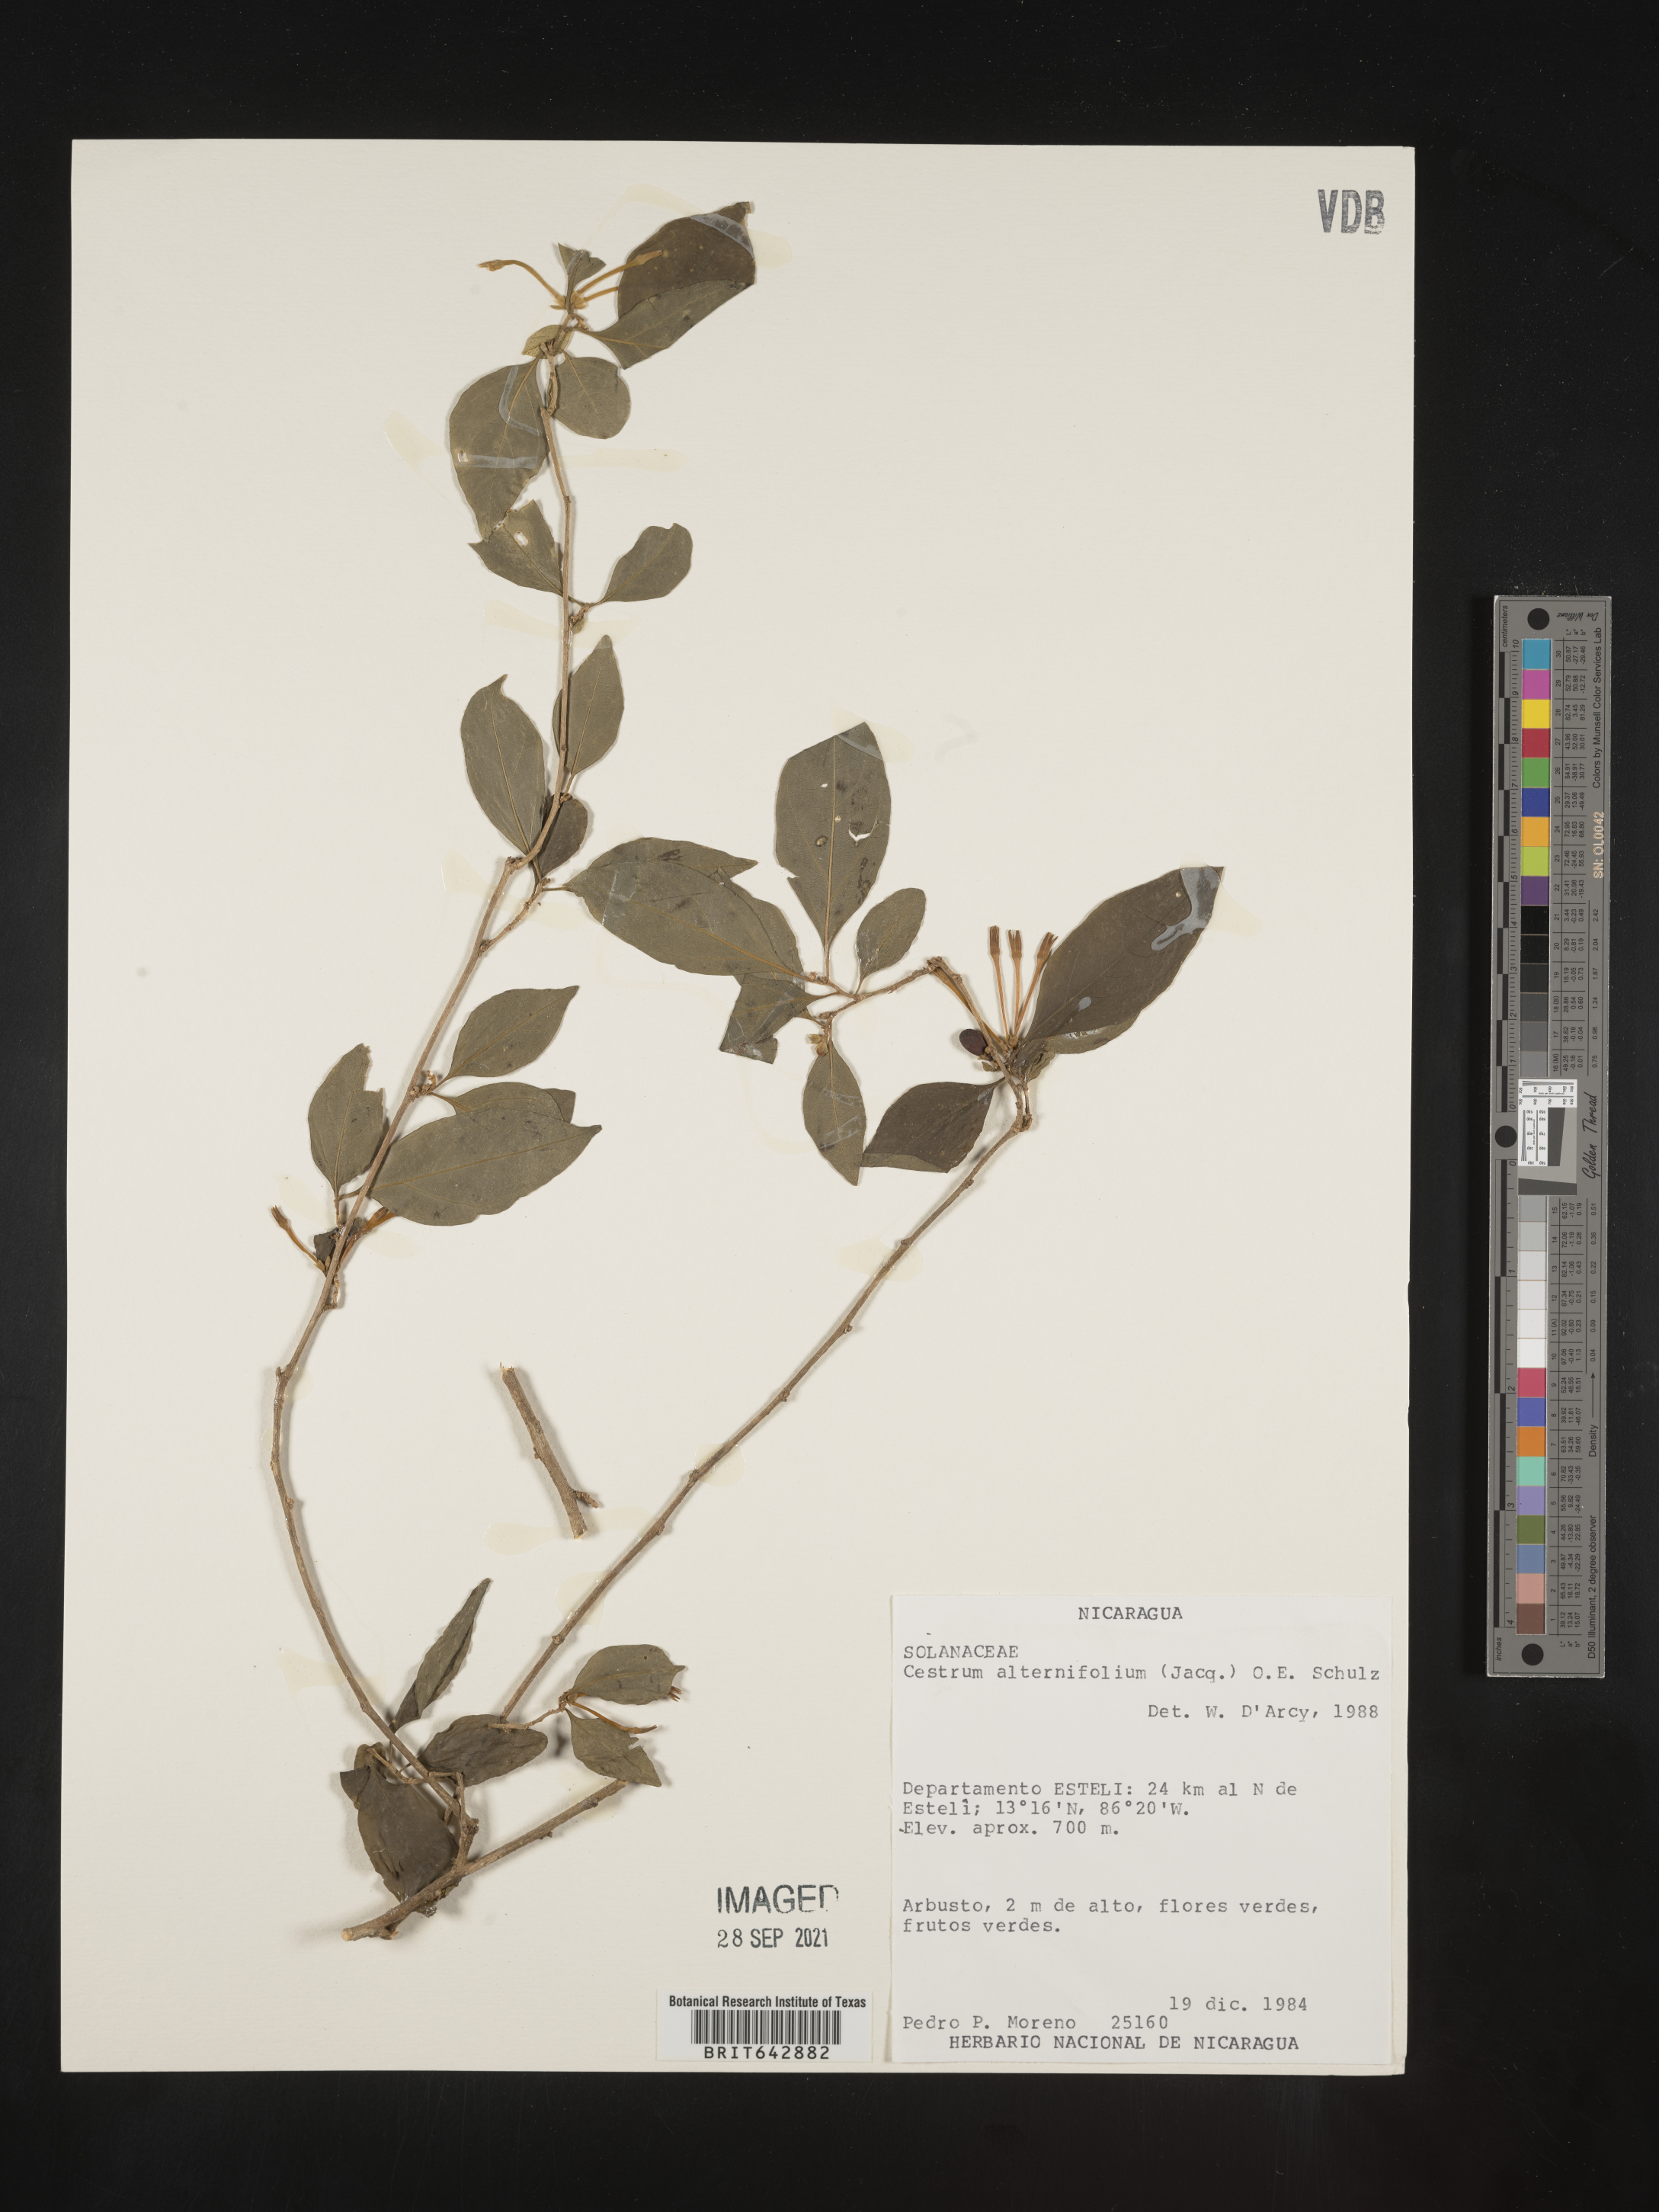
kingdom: Plantae
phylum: Tracheophyta
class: Magnoliopsida
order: Solanales
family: Solanaceae
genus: Cestrum
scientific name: Cestrum
